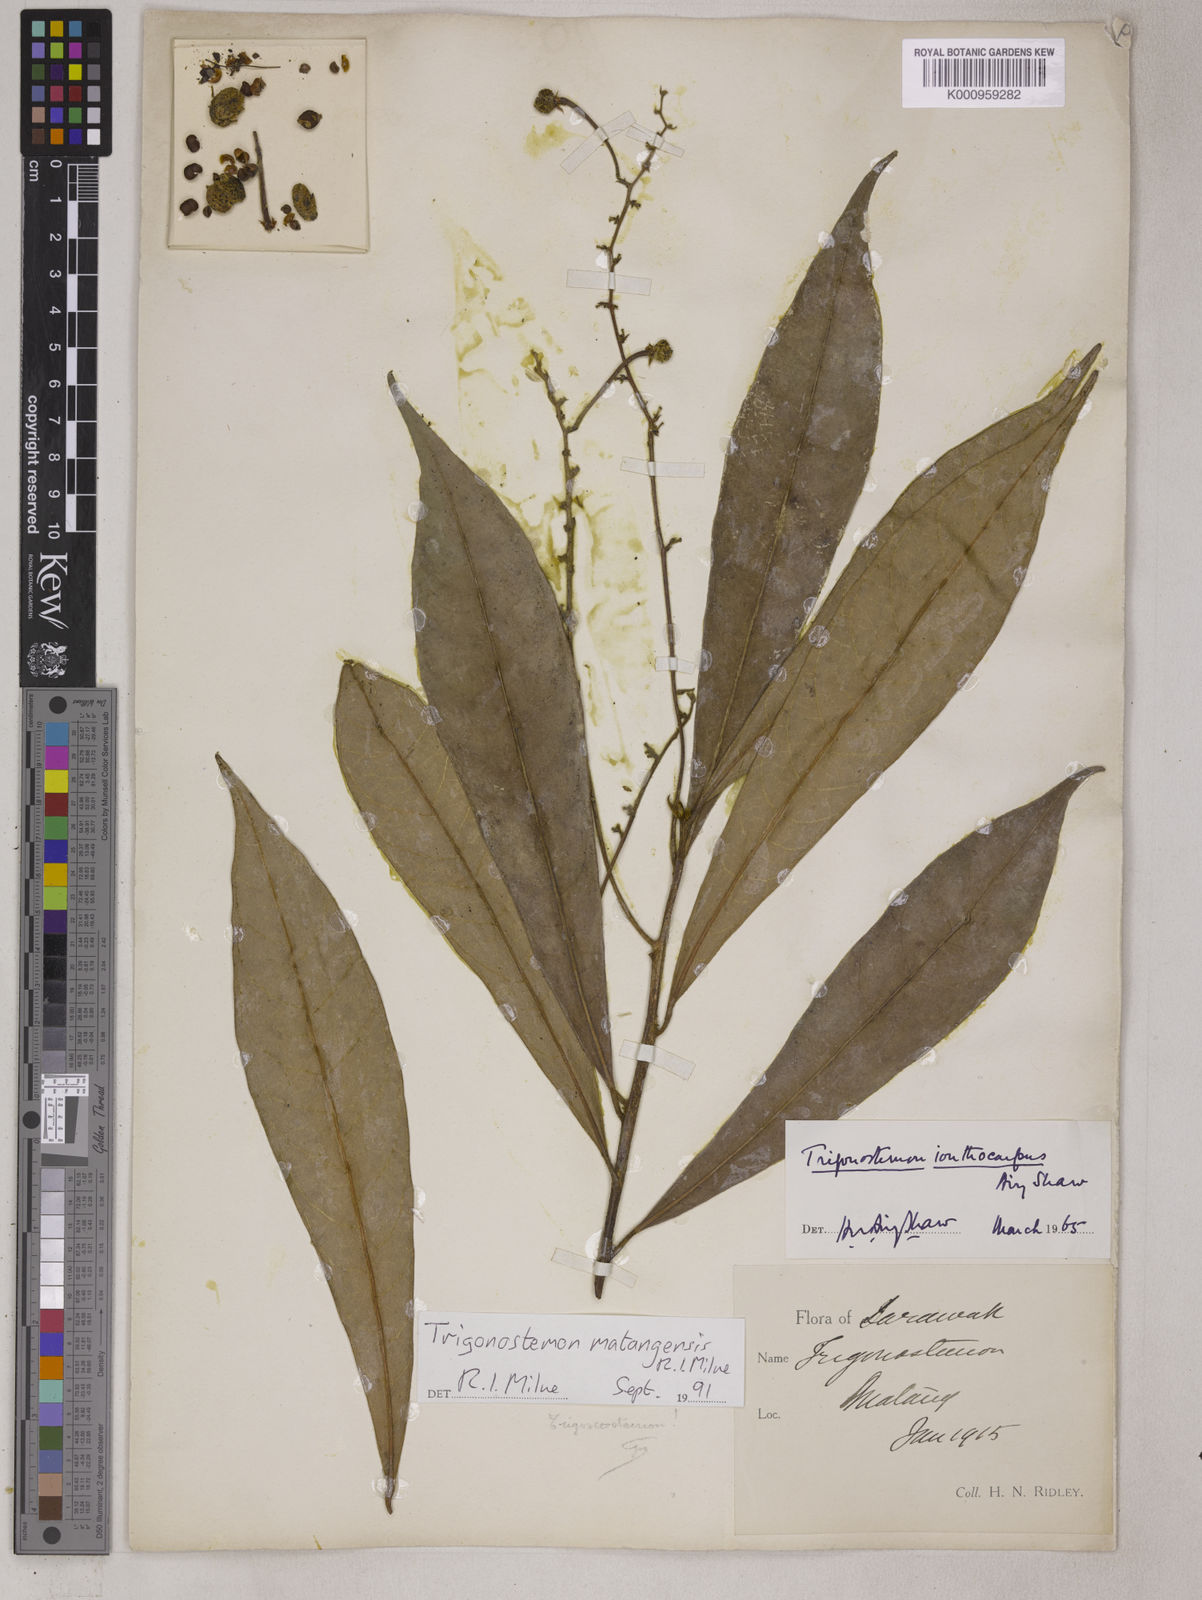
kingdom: Plantae
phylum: Tracheophyta
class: Magnoliopsida
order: Malpighiales
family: Euphorbiaceae
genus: Trigonostemon
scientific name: Trigonostemon longifolius
